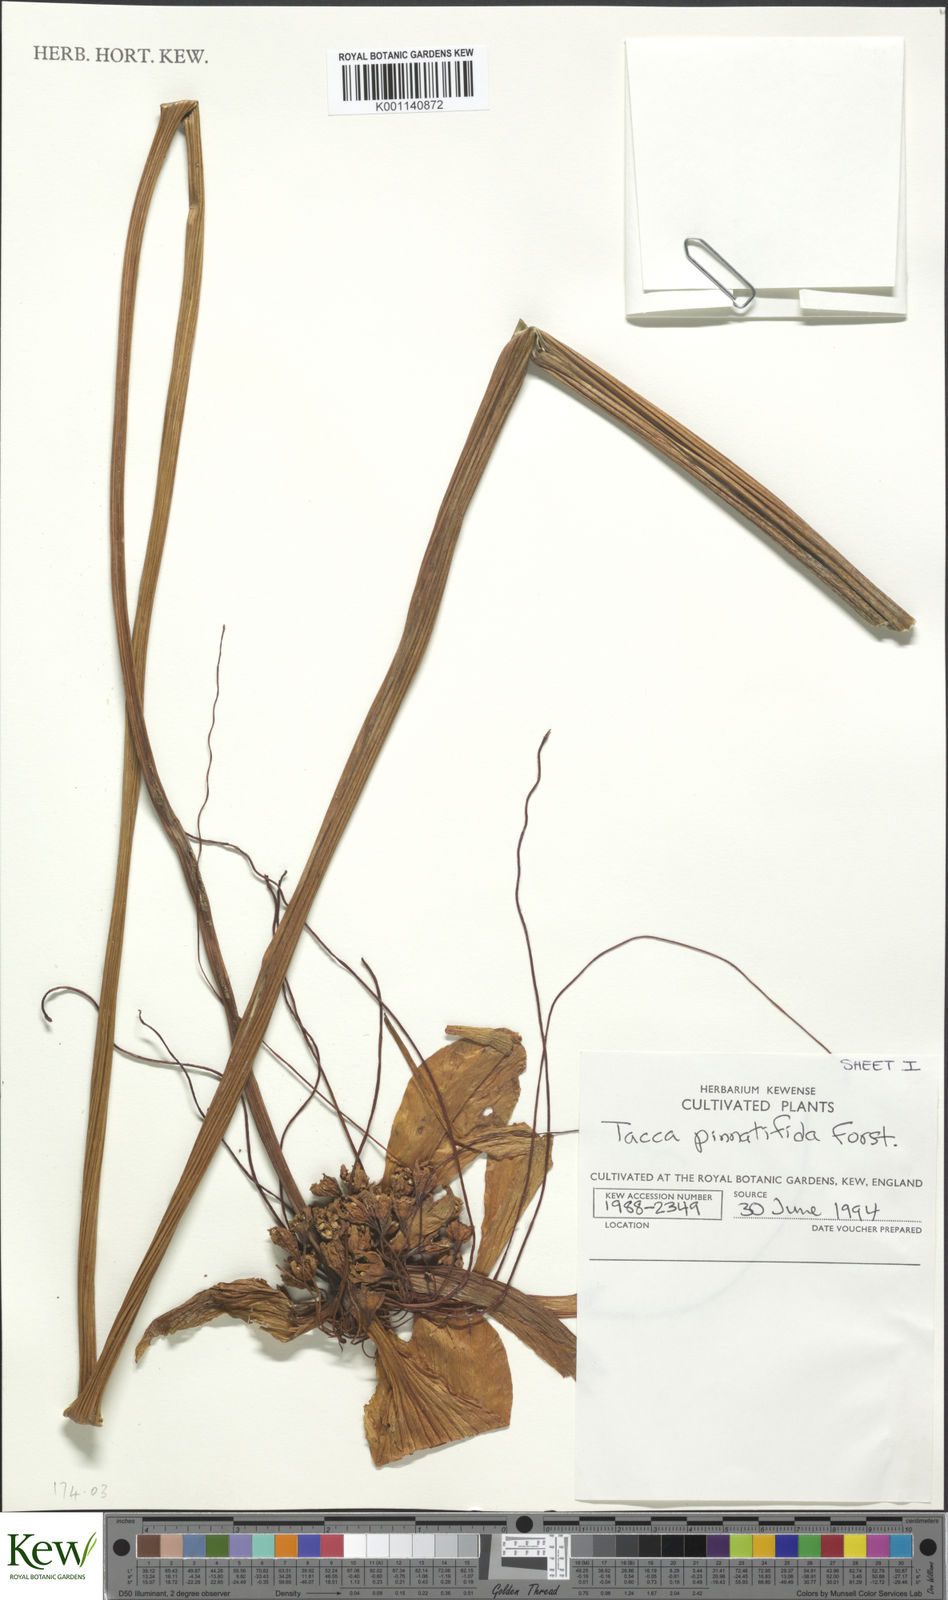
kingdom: Plantae
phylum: Tracheophyta
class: Liliopsida
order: Dioscoreales
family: Dioscoreaceae
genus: Tacca
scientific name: Tacca leontopetaloides
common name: Arrowroot
